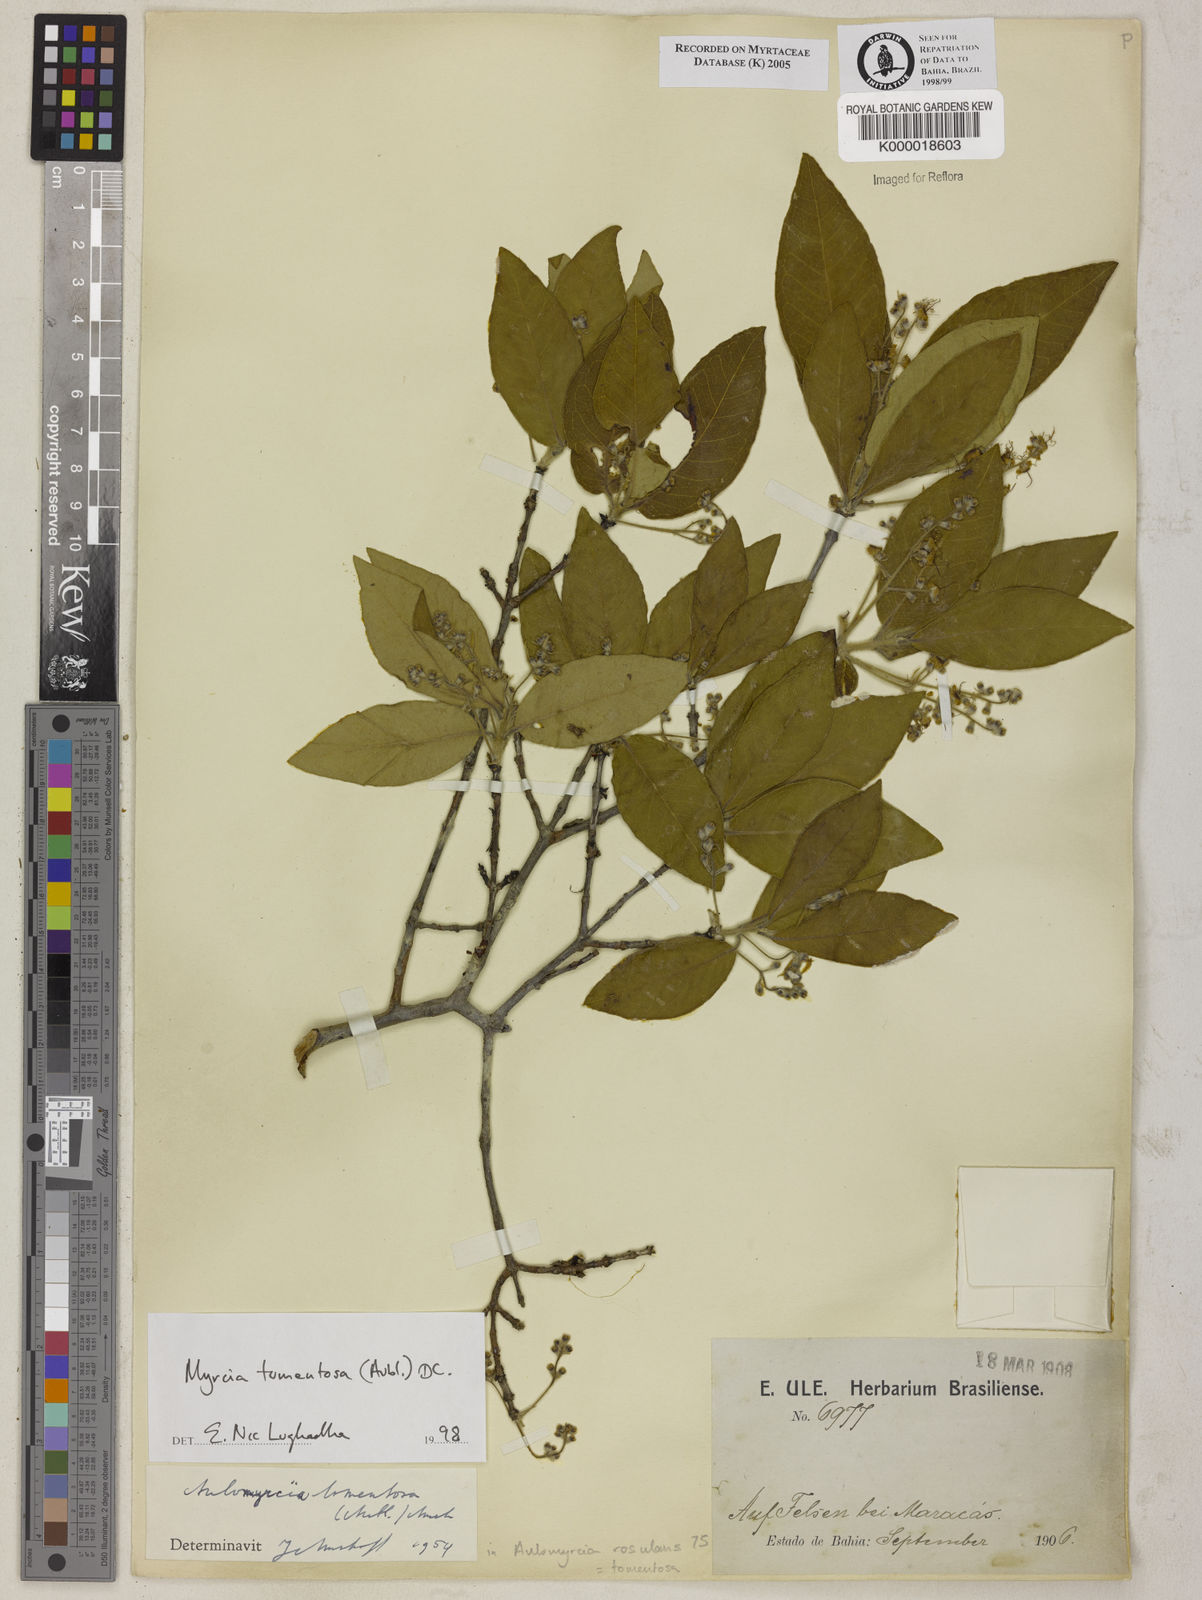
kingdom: Plantae
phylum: Tracheophyta
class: Magnoliopsida
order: Myrtales
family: Myrtaceae
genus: Myrcia
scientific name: Myrcia tomentosa
